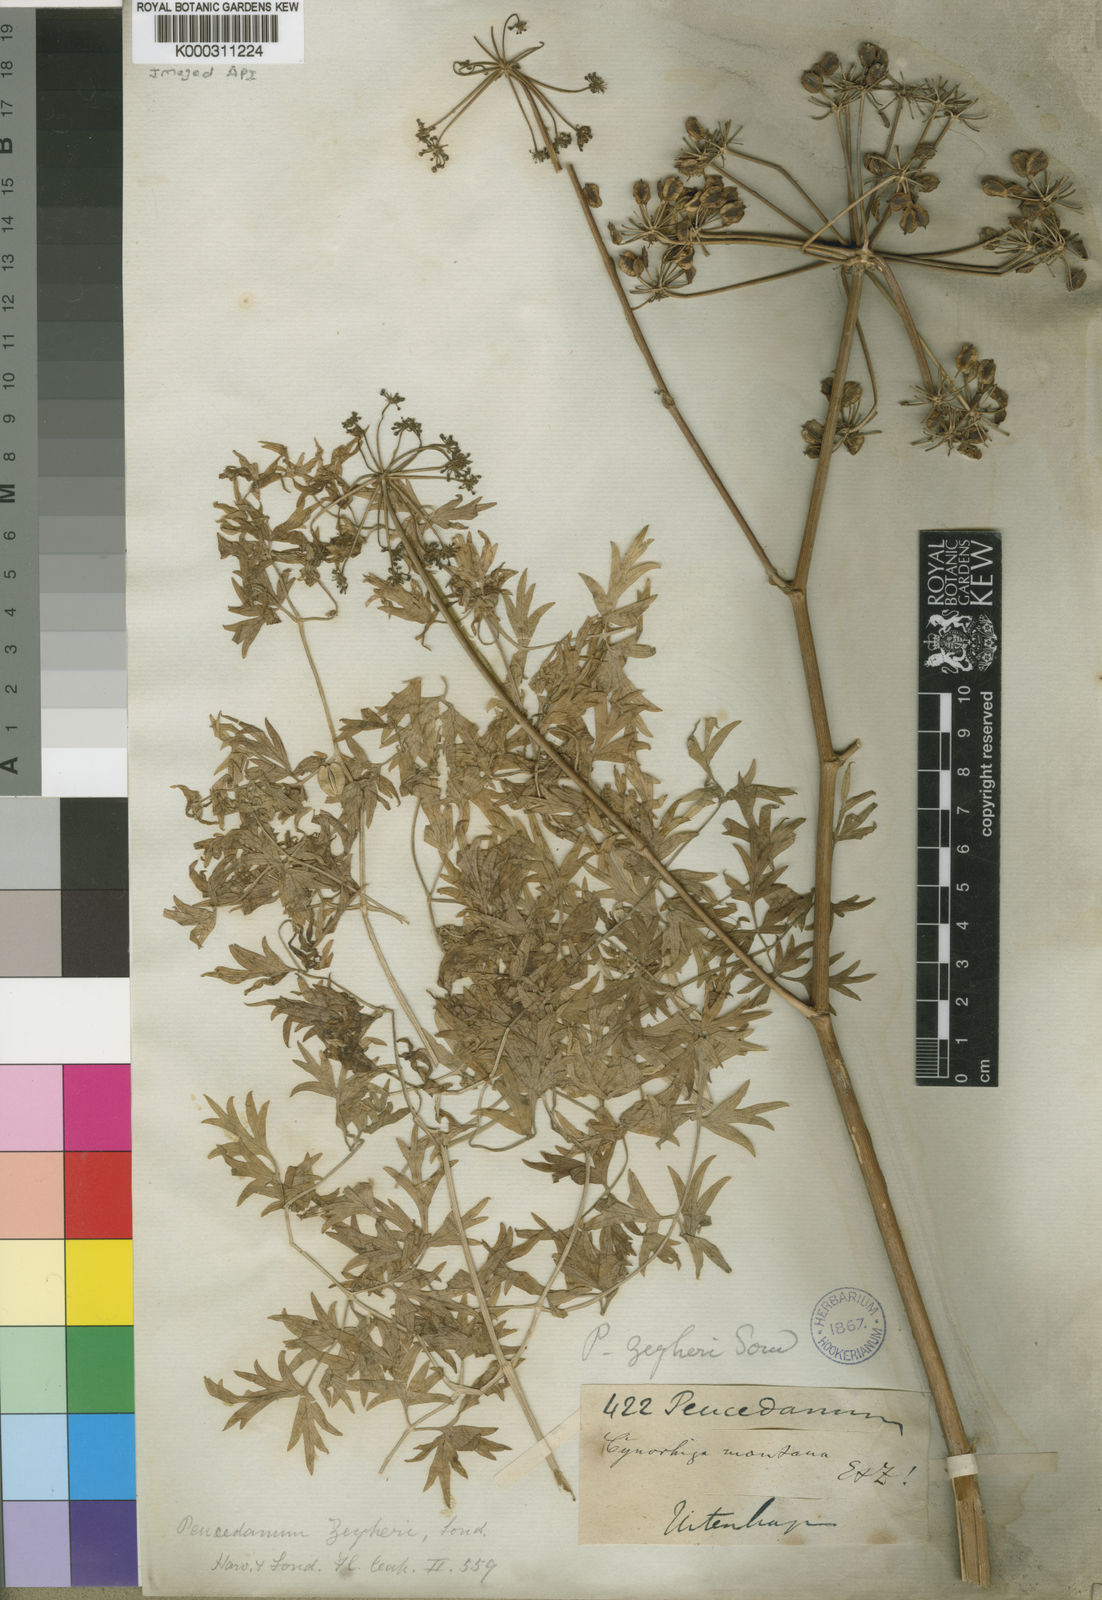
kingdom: Plantae
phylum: Tracheophyta
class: Magnoliopsida
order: Apiales
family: Apiaceae
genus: Cynorhiza
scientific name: Cynorhiza typica
